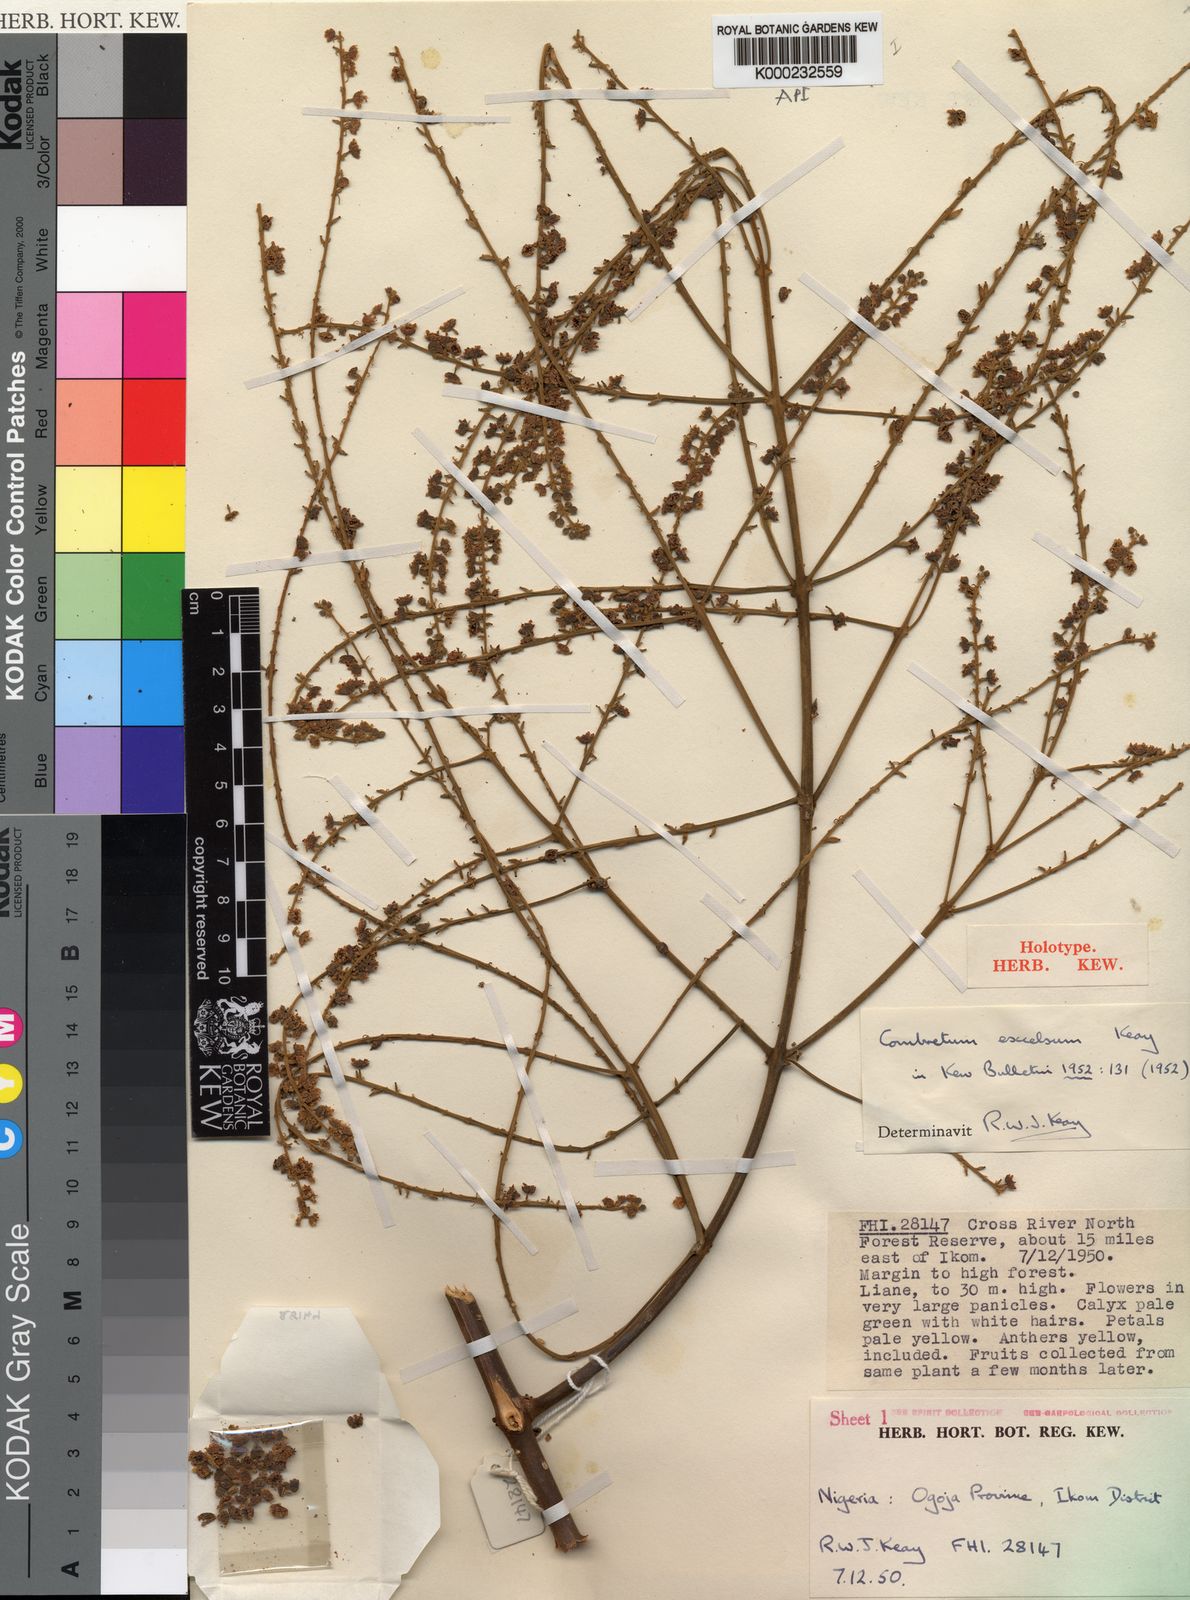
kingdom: Plantae
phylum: Tracheophyta
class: Magnoliopsida
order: Myrtales
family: Combretaceae
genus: Combretum
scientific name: Combretum pecoense
